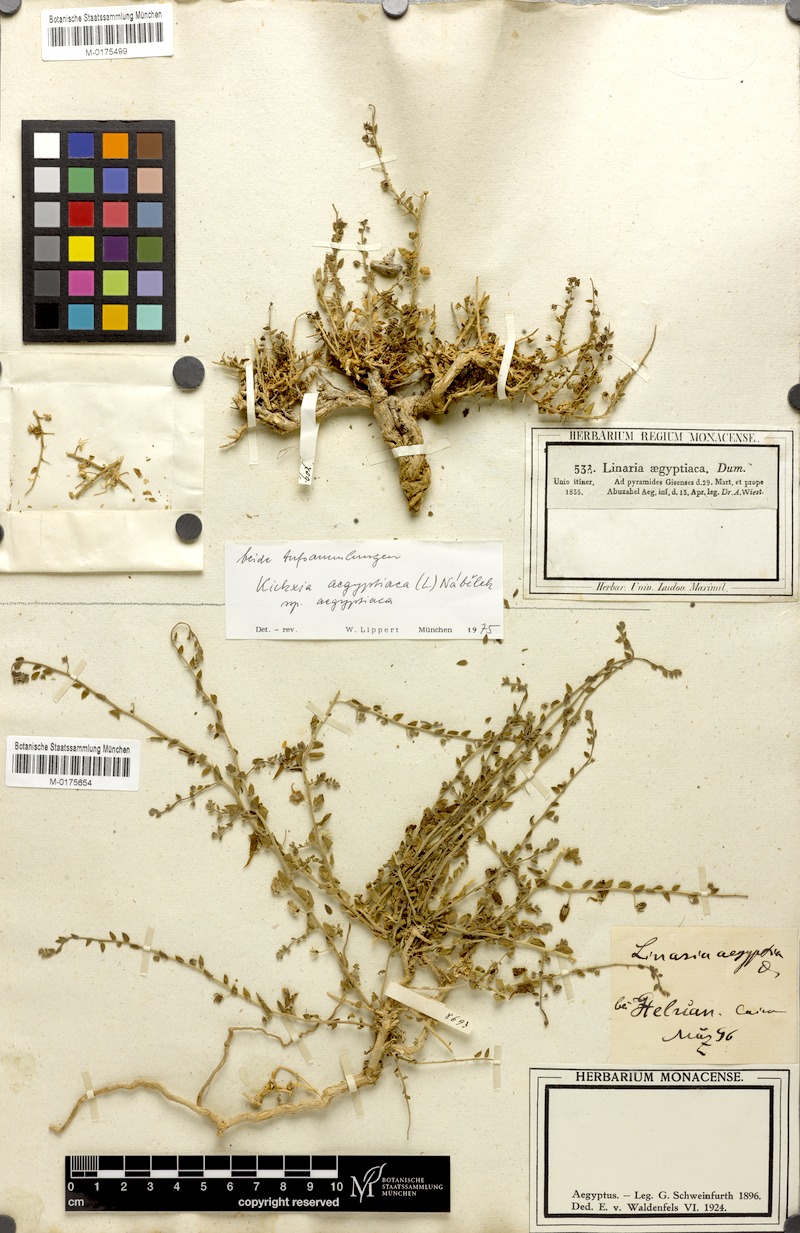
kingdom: Plantae
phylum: Tracheophyta
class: Magnoliopsida
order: Lamiales
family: Plantaginaceae
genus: Kickxia
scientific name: Kickxia aegyptiaca
